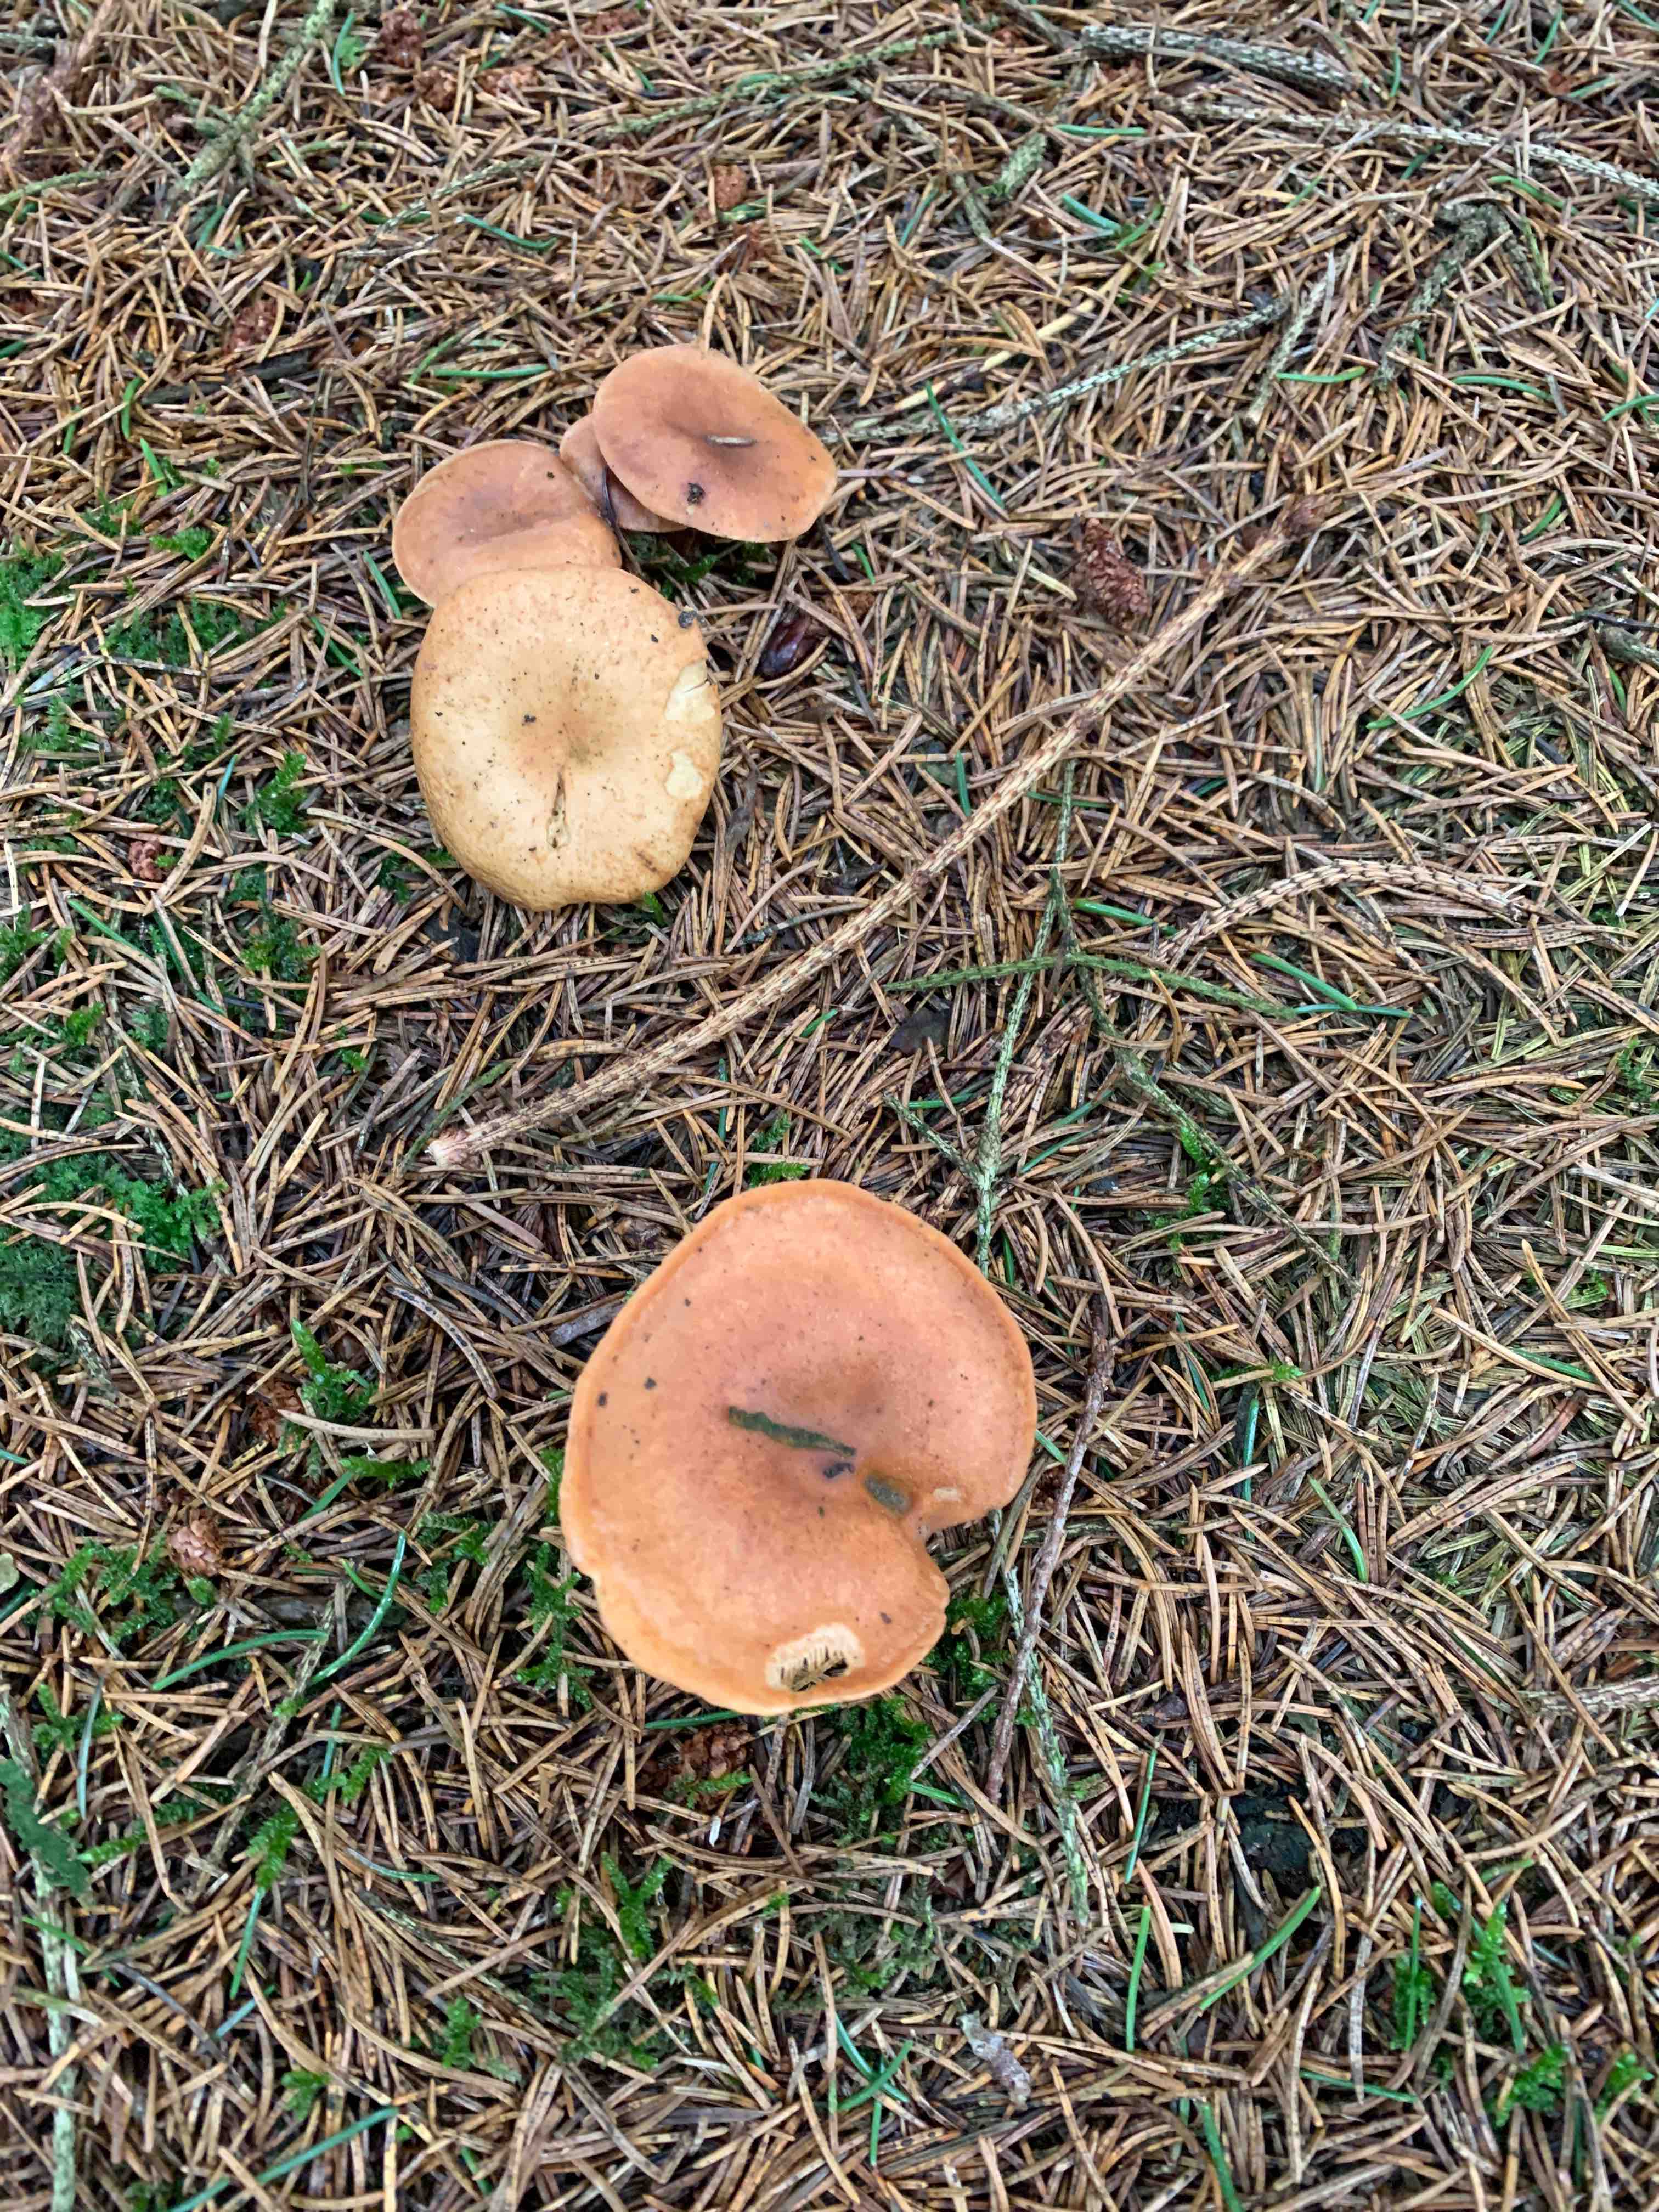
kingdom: Fungi
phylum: Basidiomycota
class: Agaricomycetes
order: Agaricales
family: Tricholomataceae
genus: Paralepista
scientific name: Paralepista flaccida
